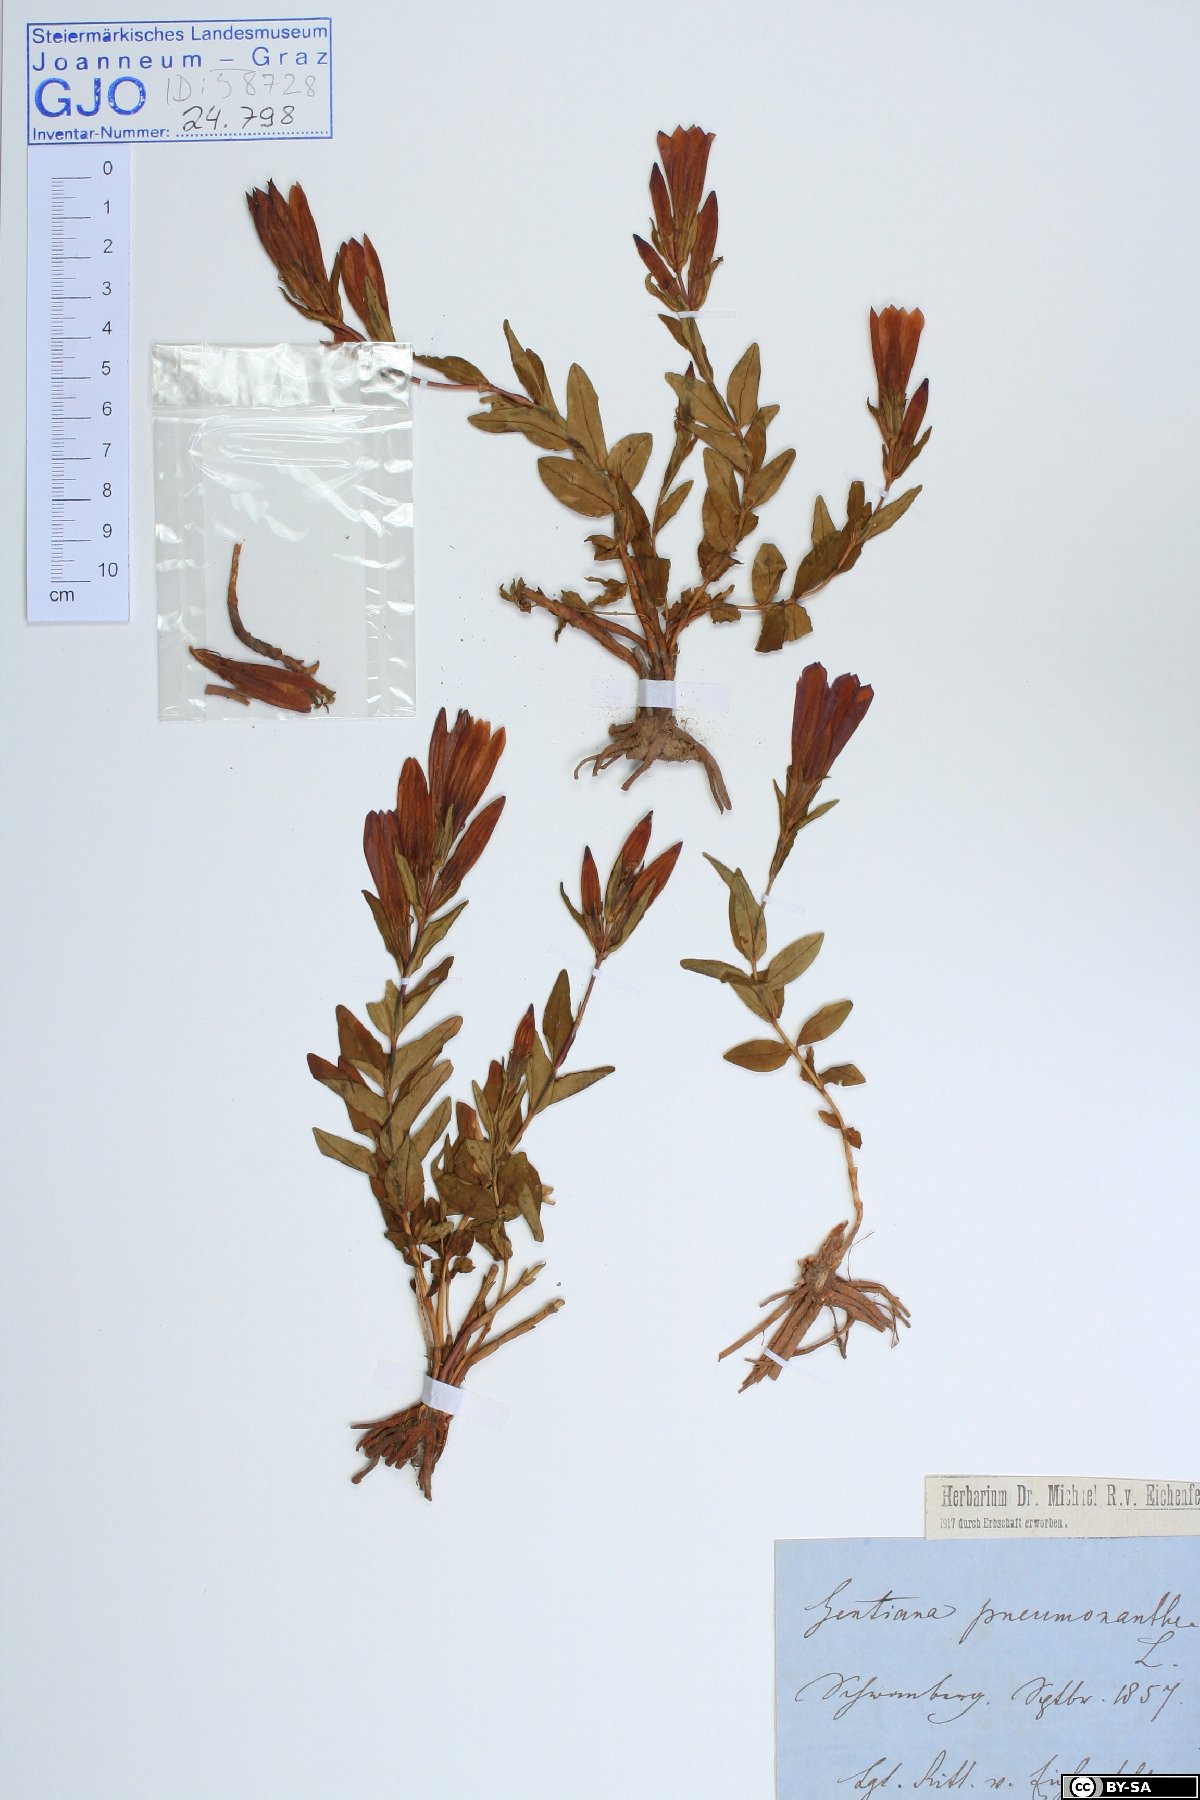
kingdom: Plantae
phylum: Tracheophyta
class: Magnoliopsida
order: Gentianales
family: Gentianaceae
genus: Gentiana
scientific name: Gentiana pneumonanthe
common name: Marsh gentian
